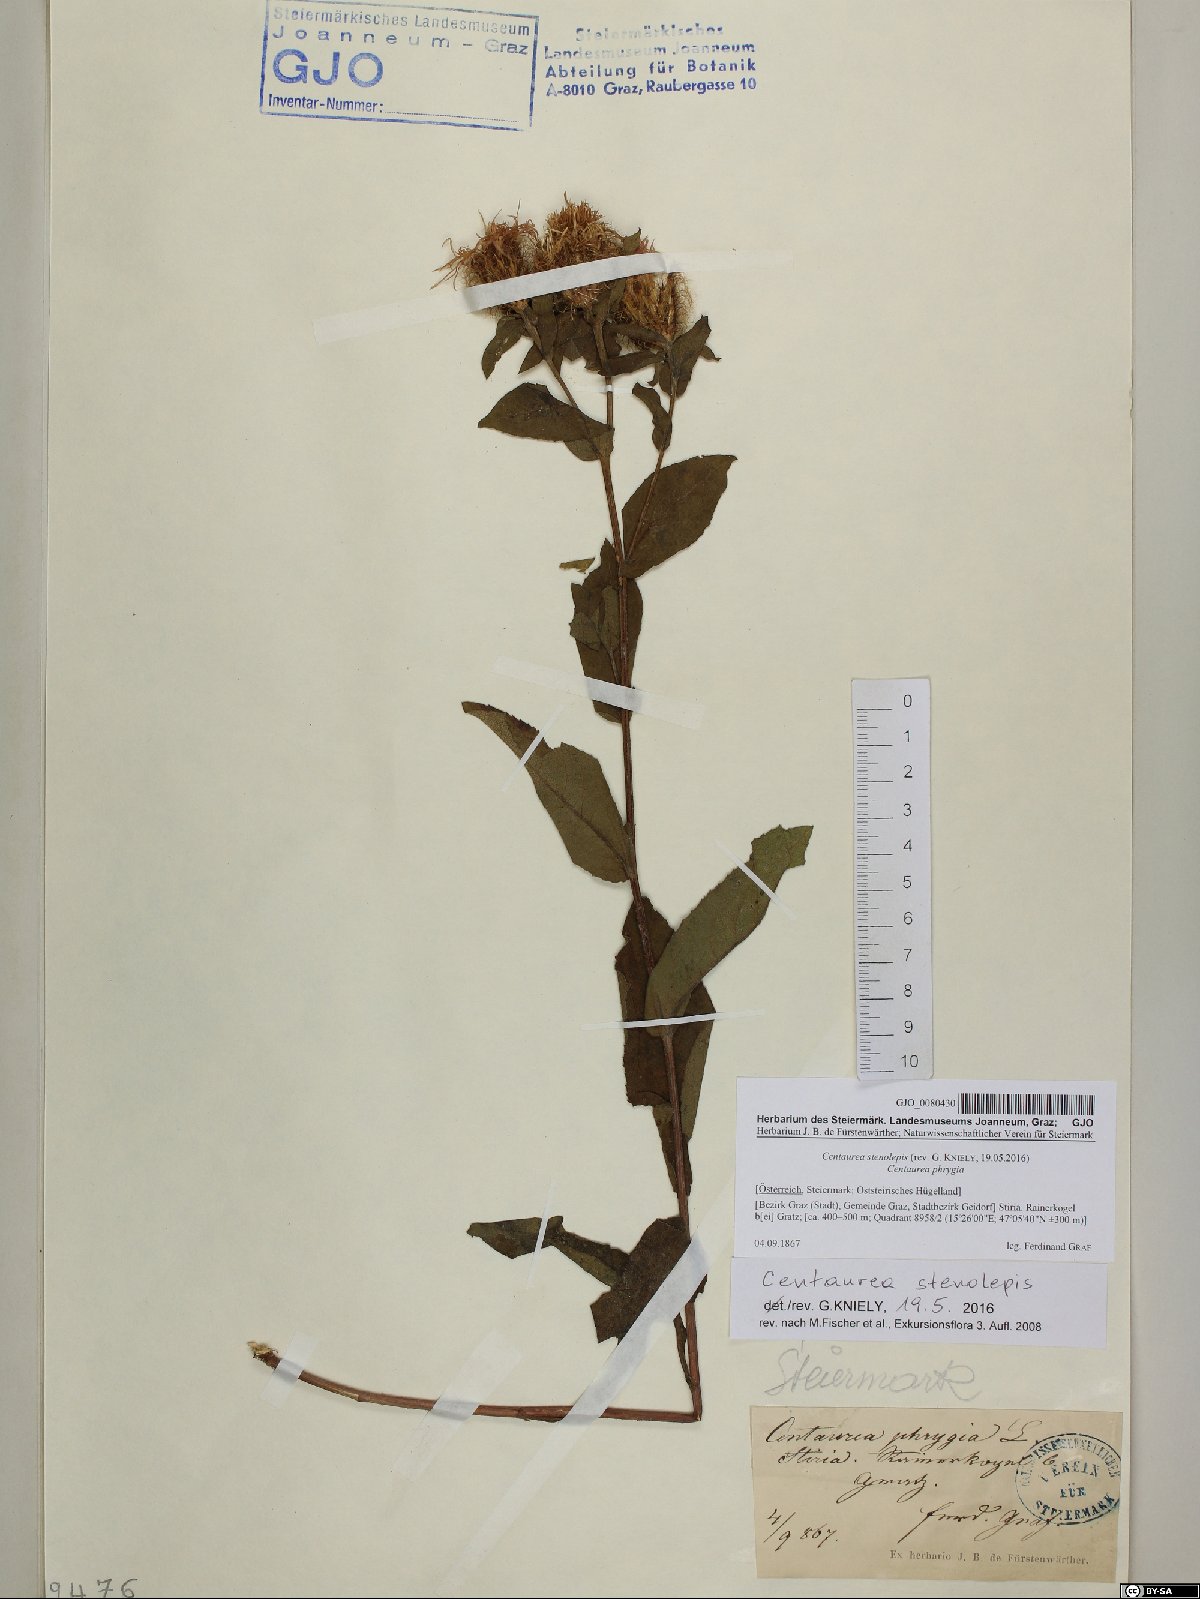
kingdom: Plantae
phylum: Tracheophyta
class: Magnoliopsida
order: Asterales
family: Asteraceae
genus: Centaurea
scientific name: Centaurea stenolepis
